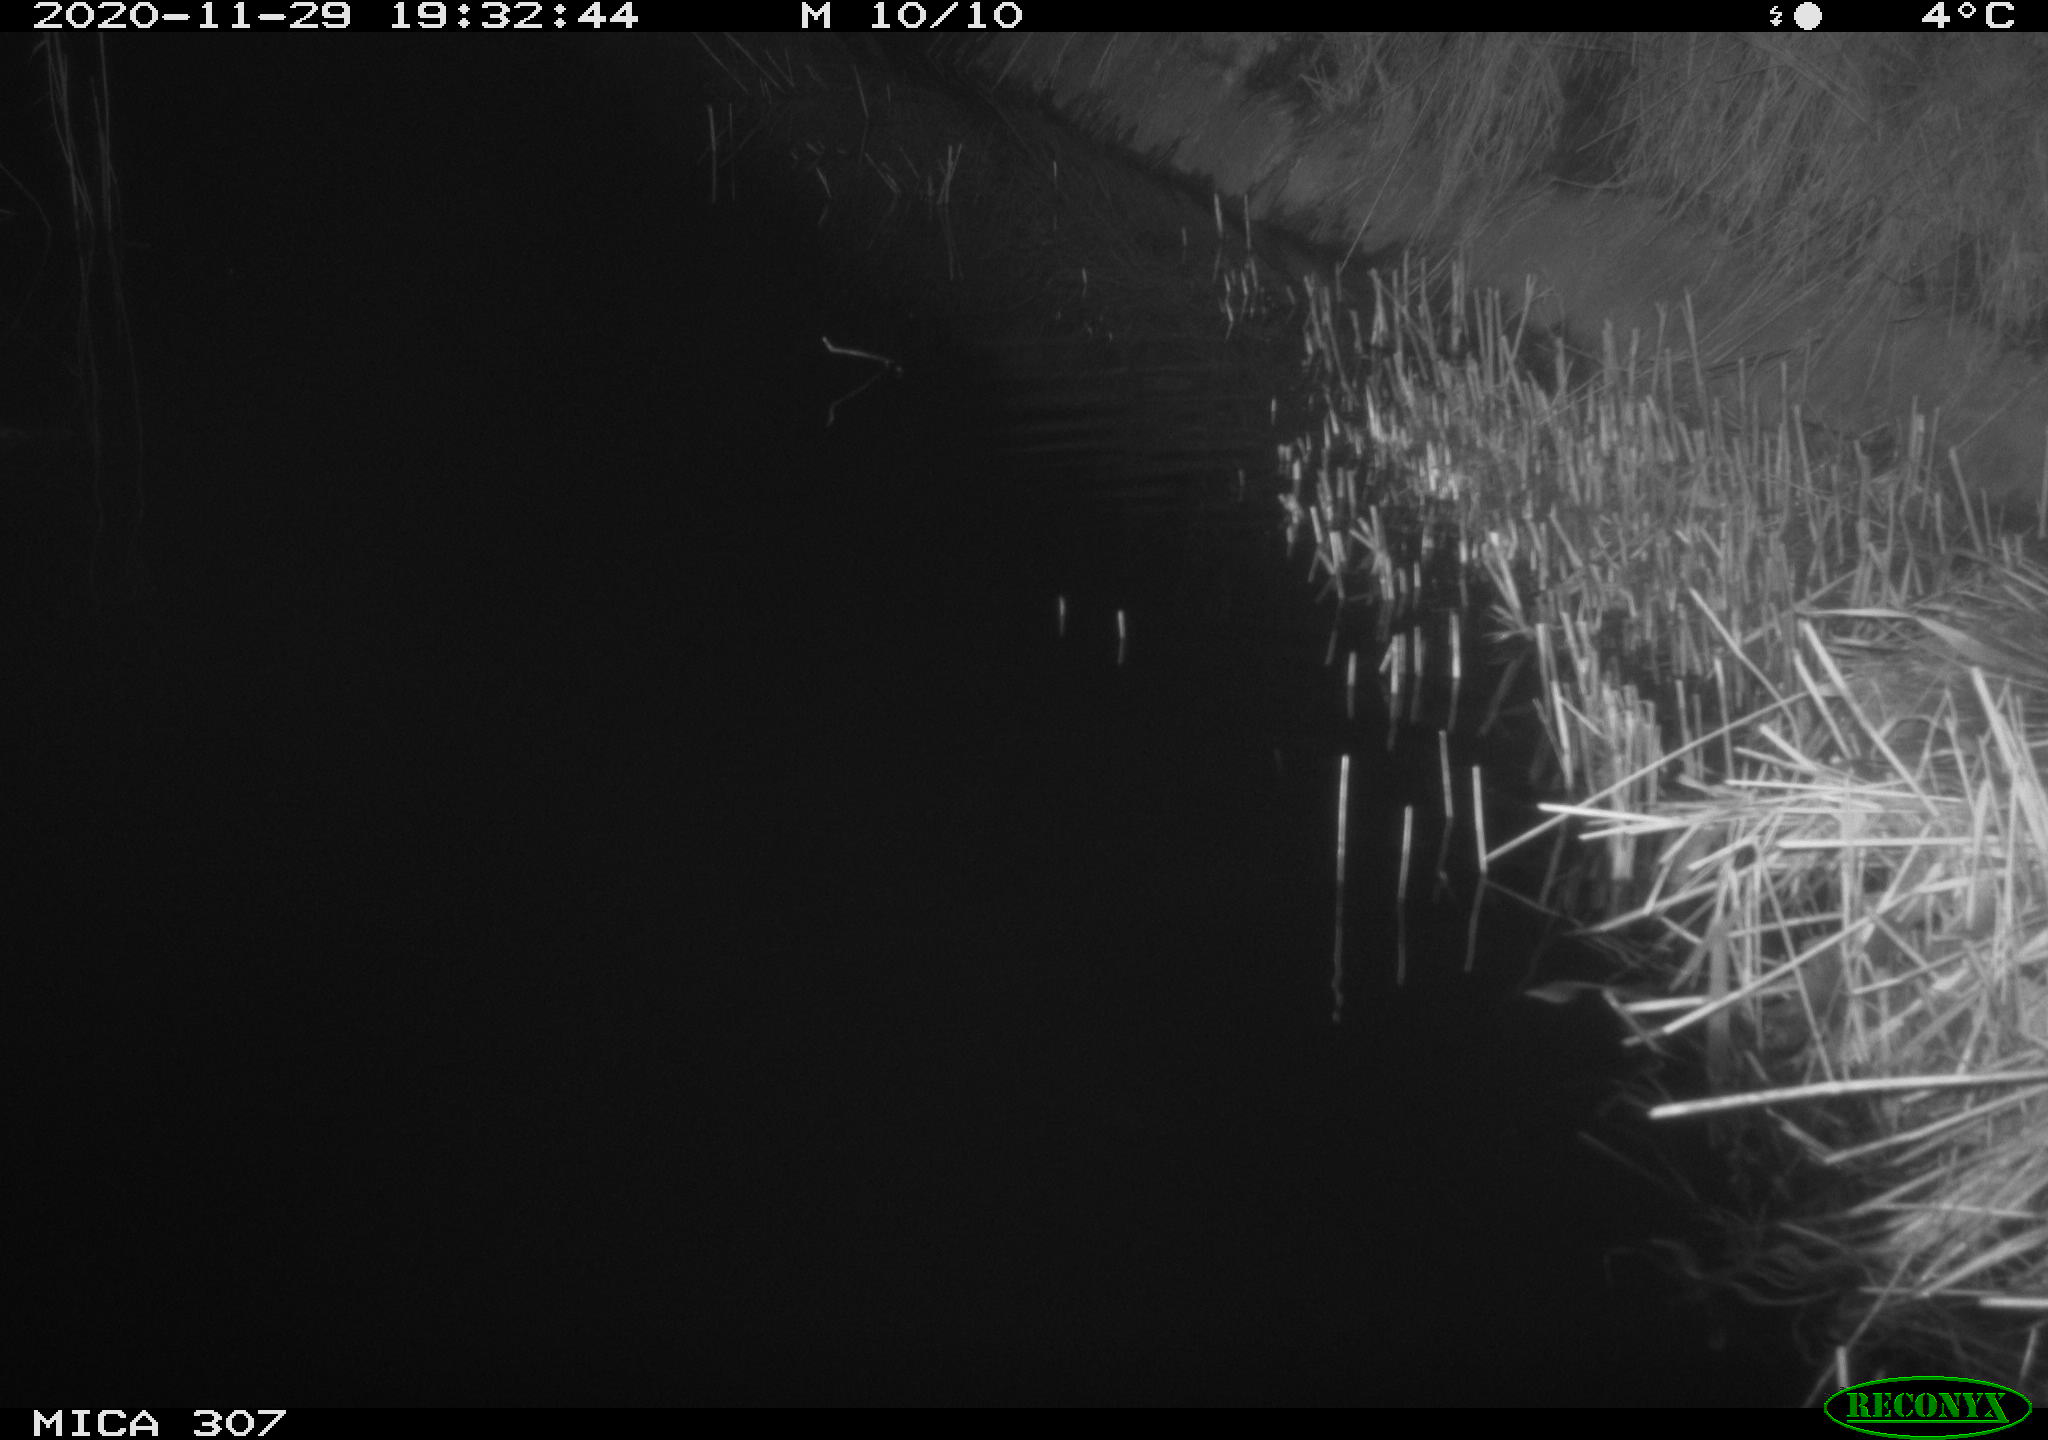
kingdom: Animalia
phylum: Chordata
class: Mammalia
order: Rodentia
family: Muridae
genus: Rattus
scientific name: Rattus norvegicus
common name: Brown rat
